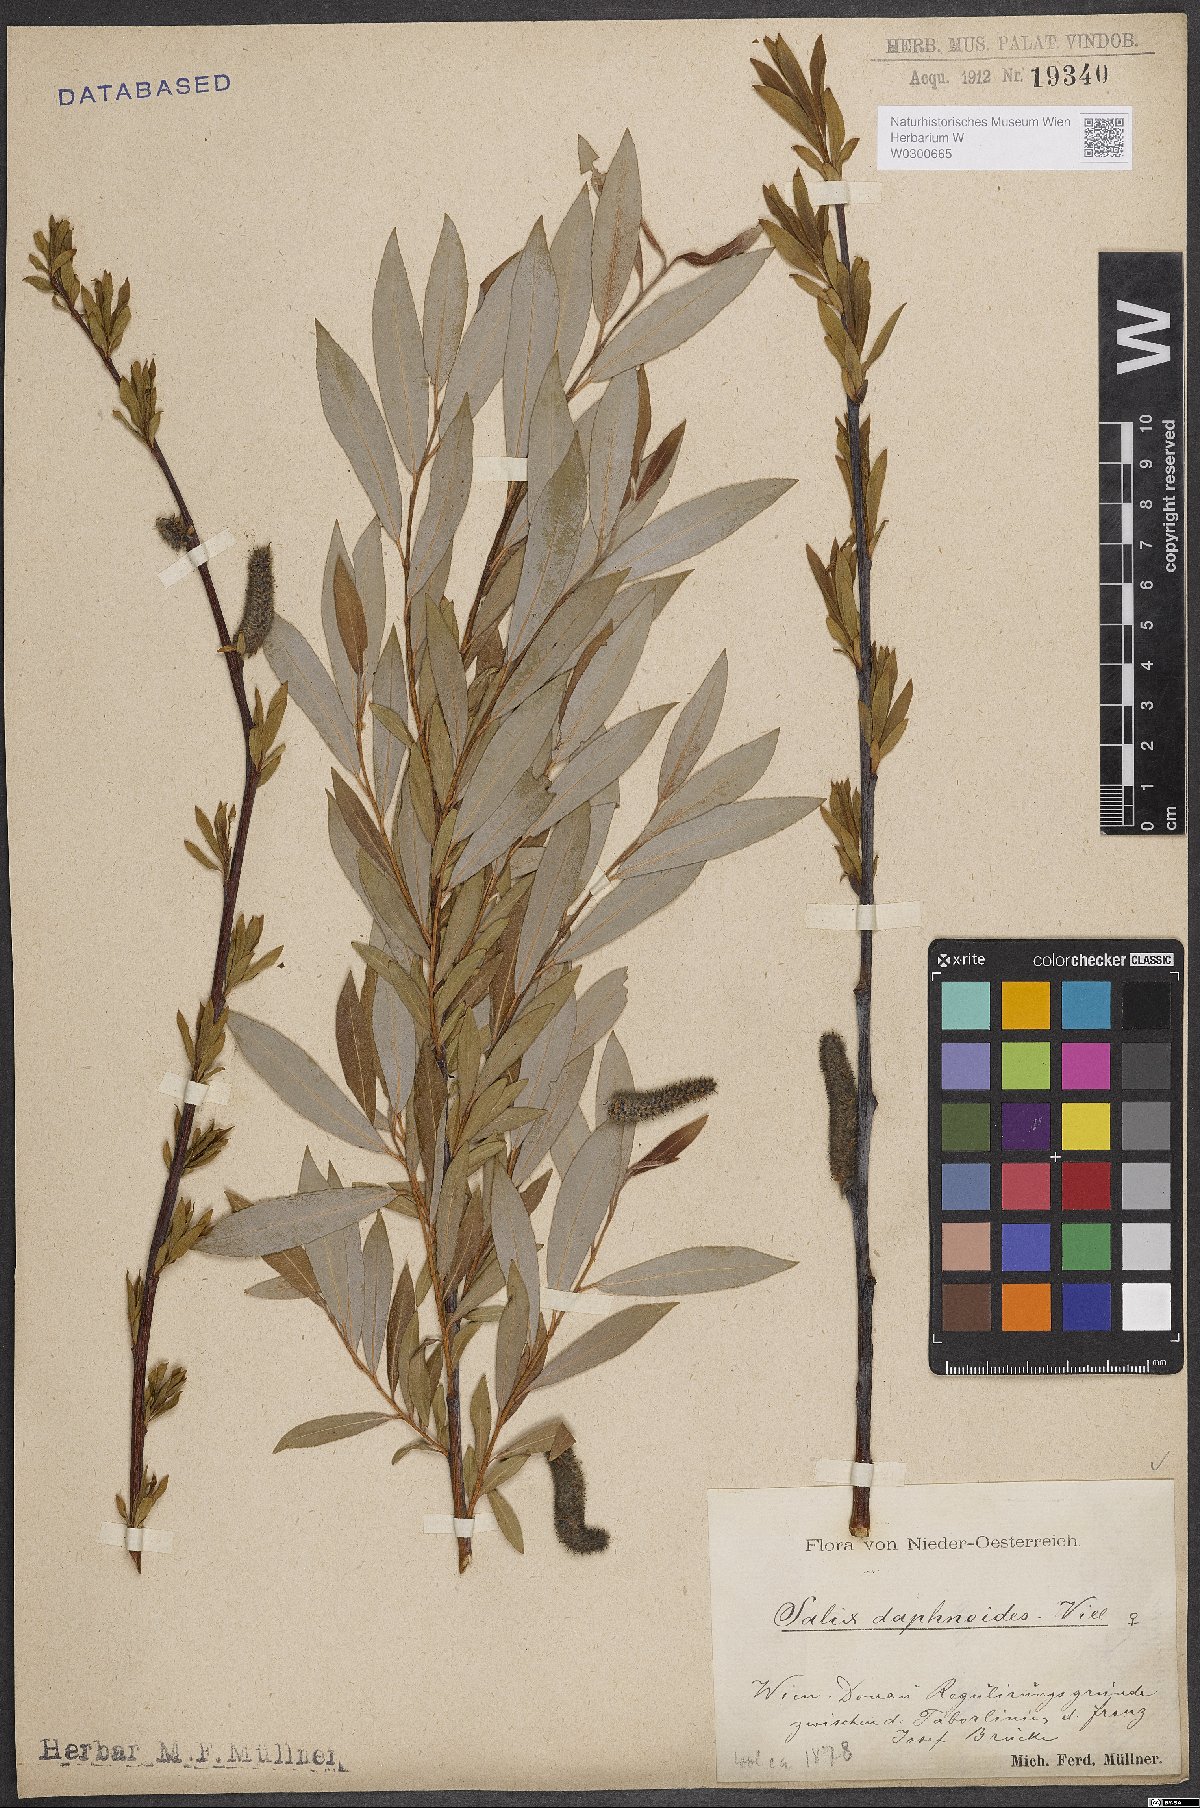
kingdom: Plantae
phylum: Tracheophyta
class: Magnoliopsida
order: Malpighiales
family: Salicaceae
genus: Salix
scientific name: Salix daphnoides
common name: European violet-willow
